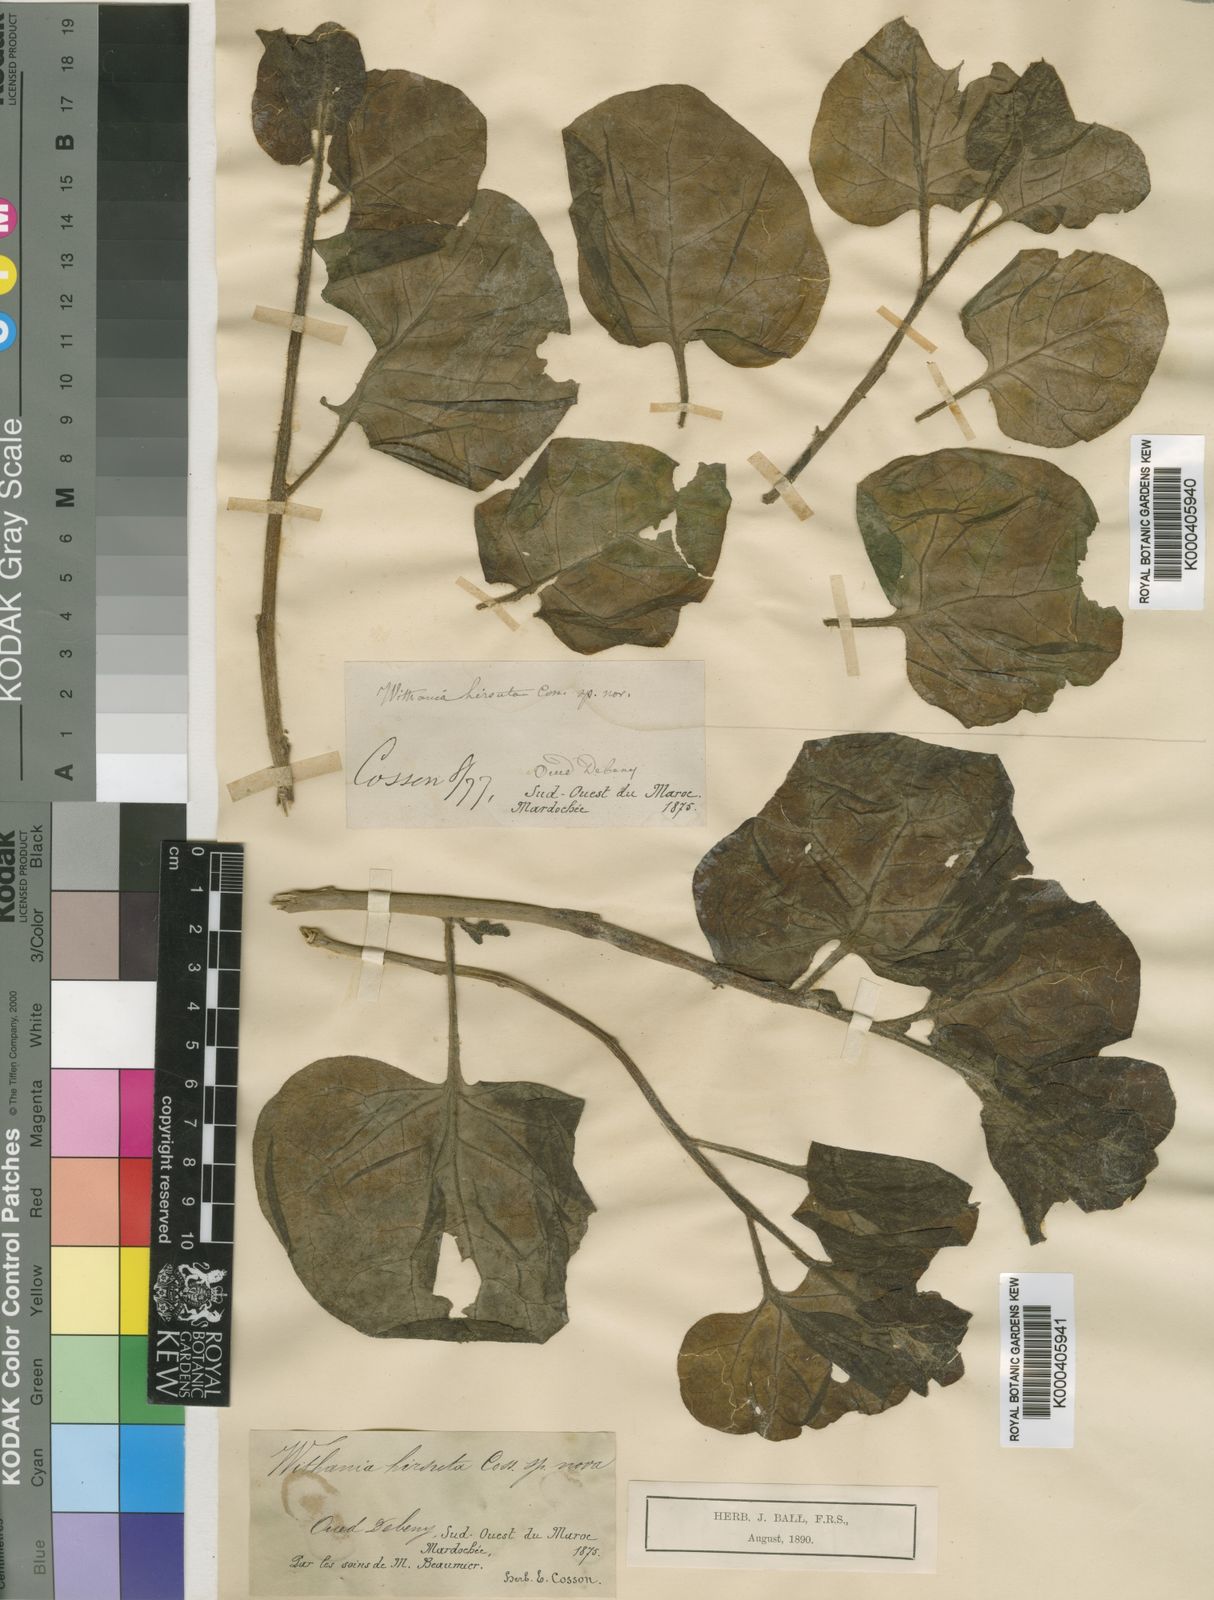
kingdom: Plantae
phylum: Tracheophyta
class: Magnoliopsida
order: Solanales
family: Solanaceae
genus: Withania
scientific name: Withania frutescens
